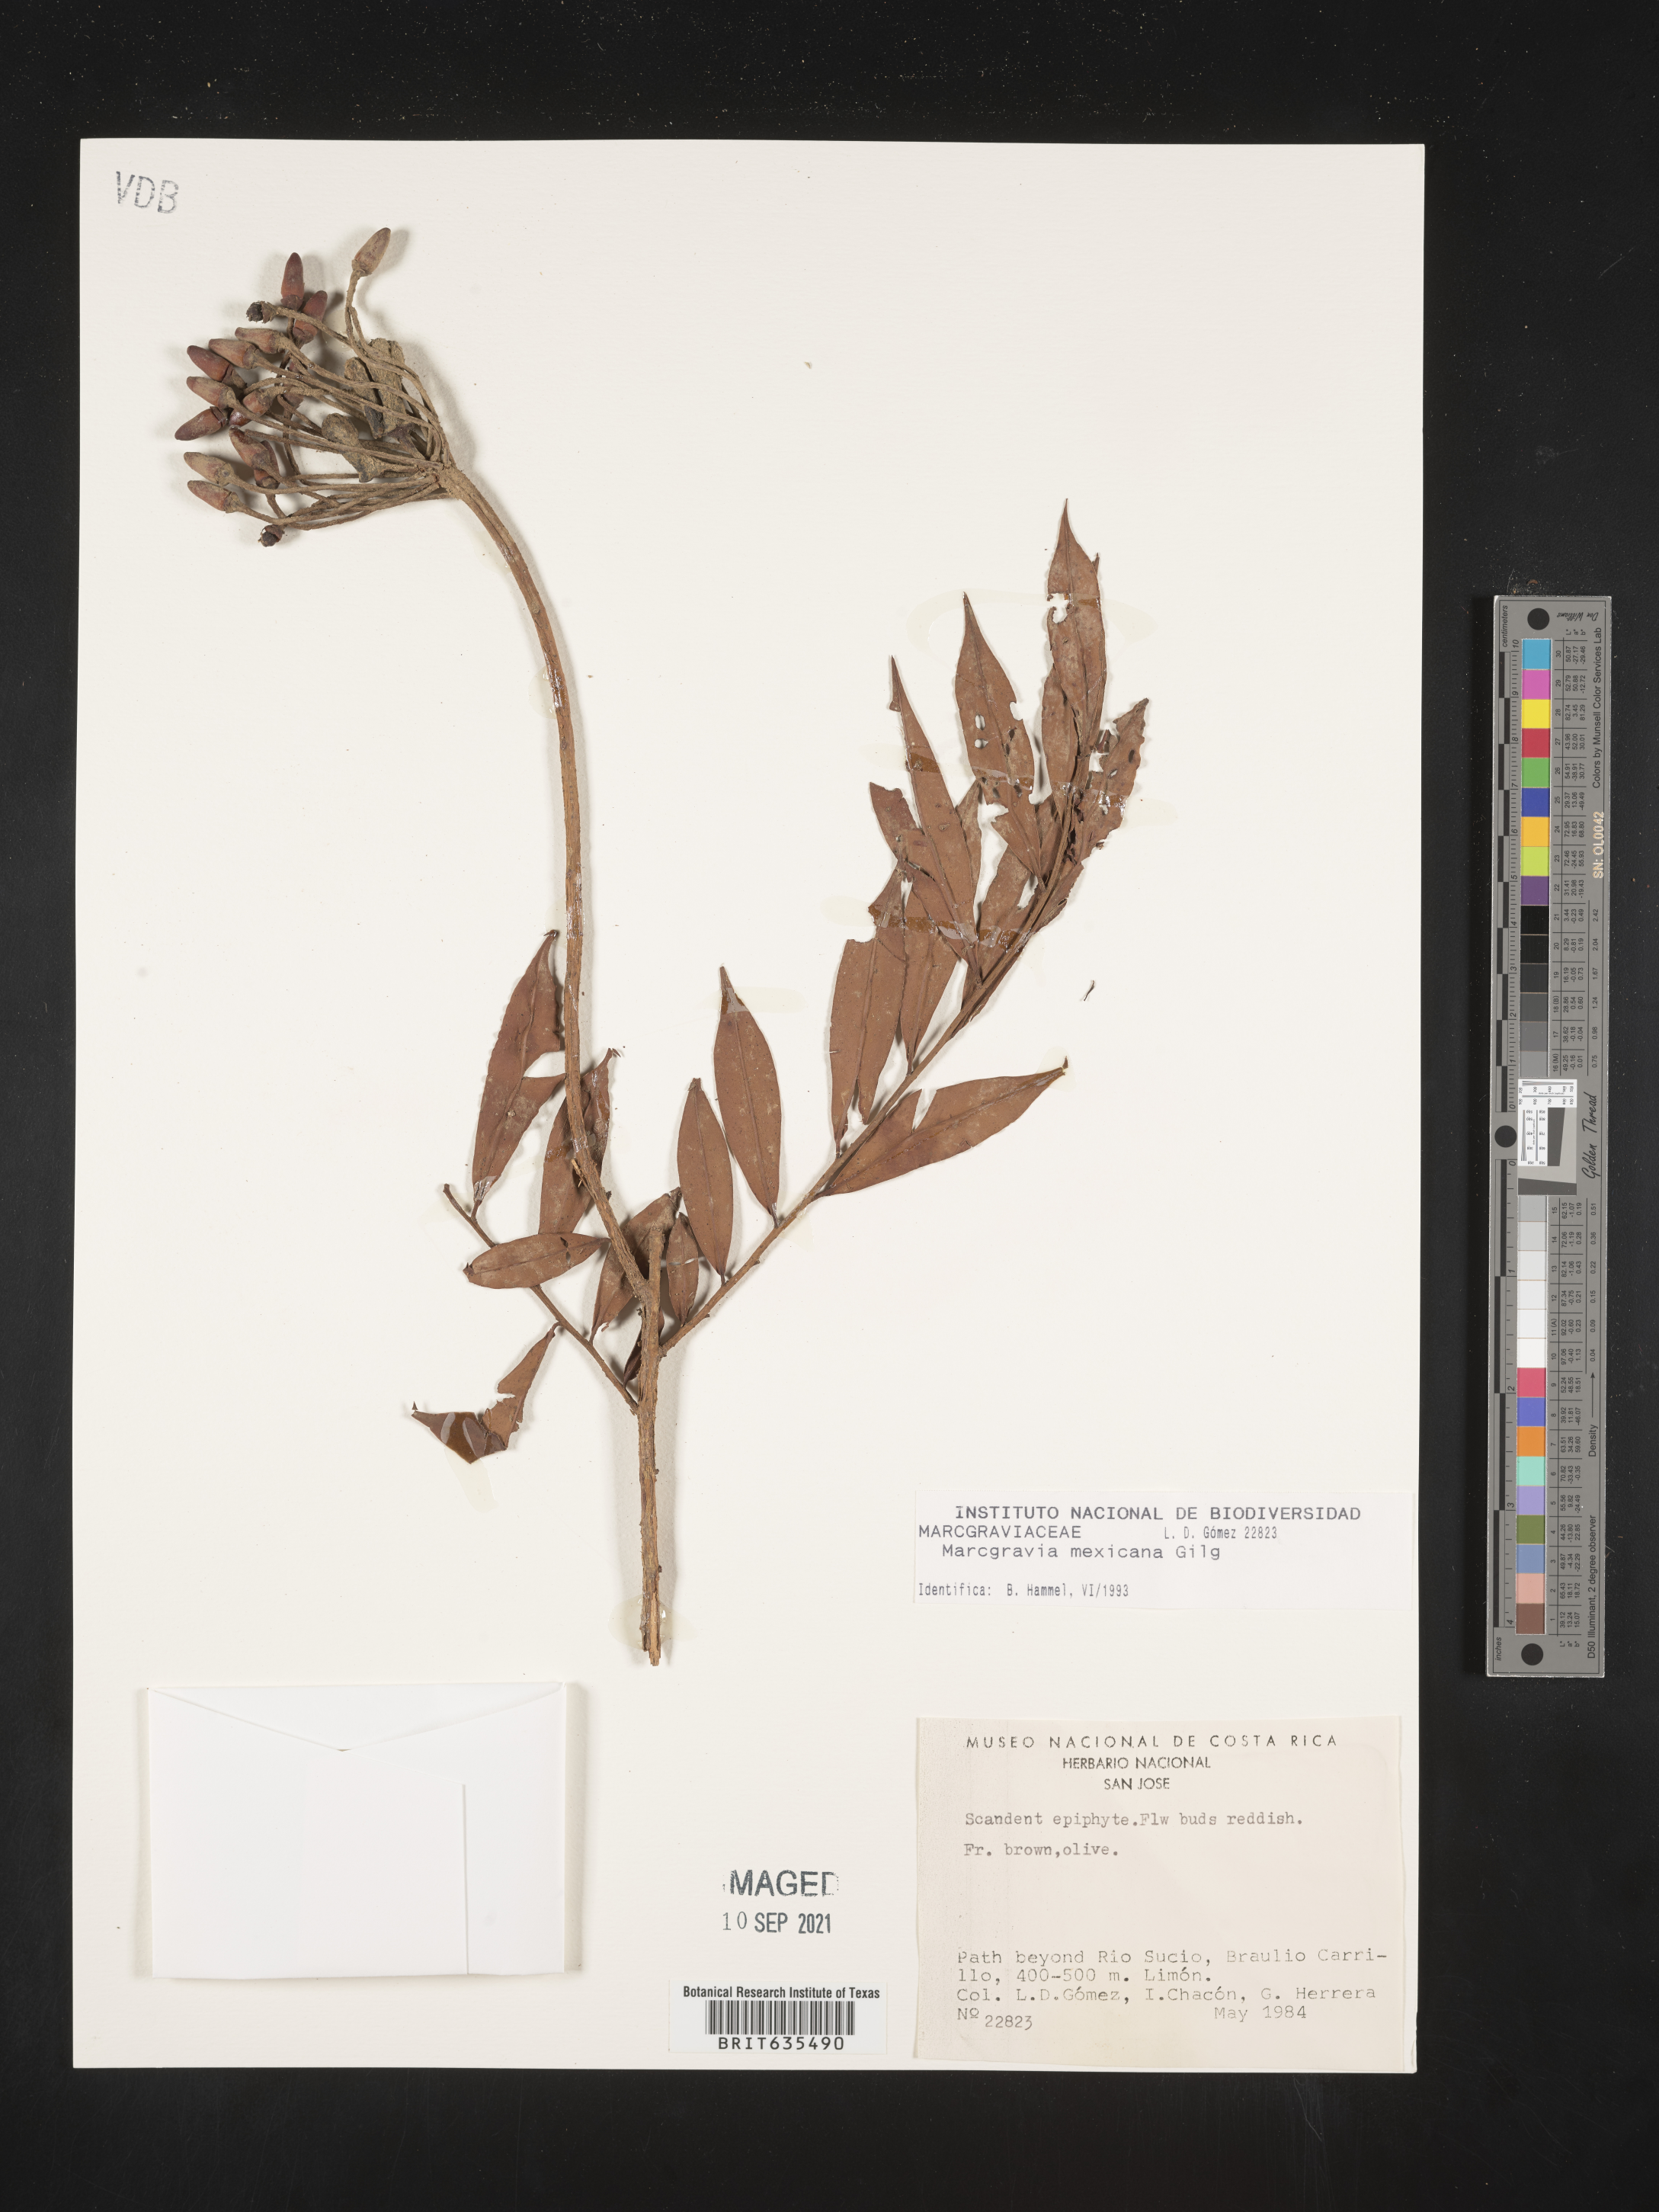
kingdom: Plantae
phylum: Tracheophyta
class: Magnoliopsida
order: Ericales
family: Marcgraviaceae
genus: Marcgravia
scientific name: Marcgravia
